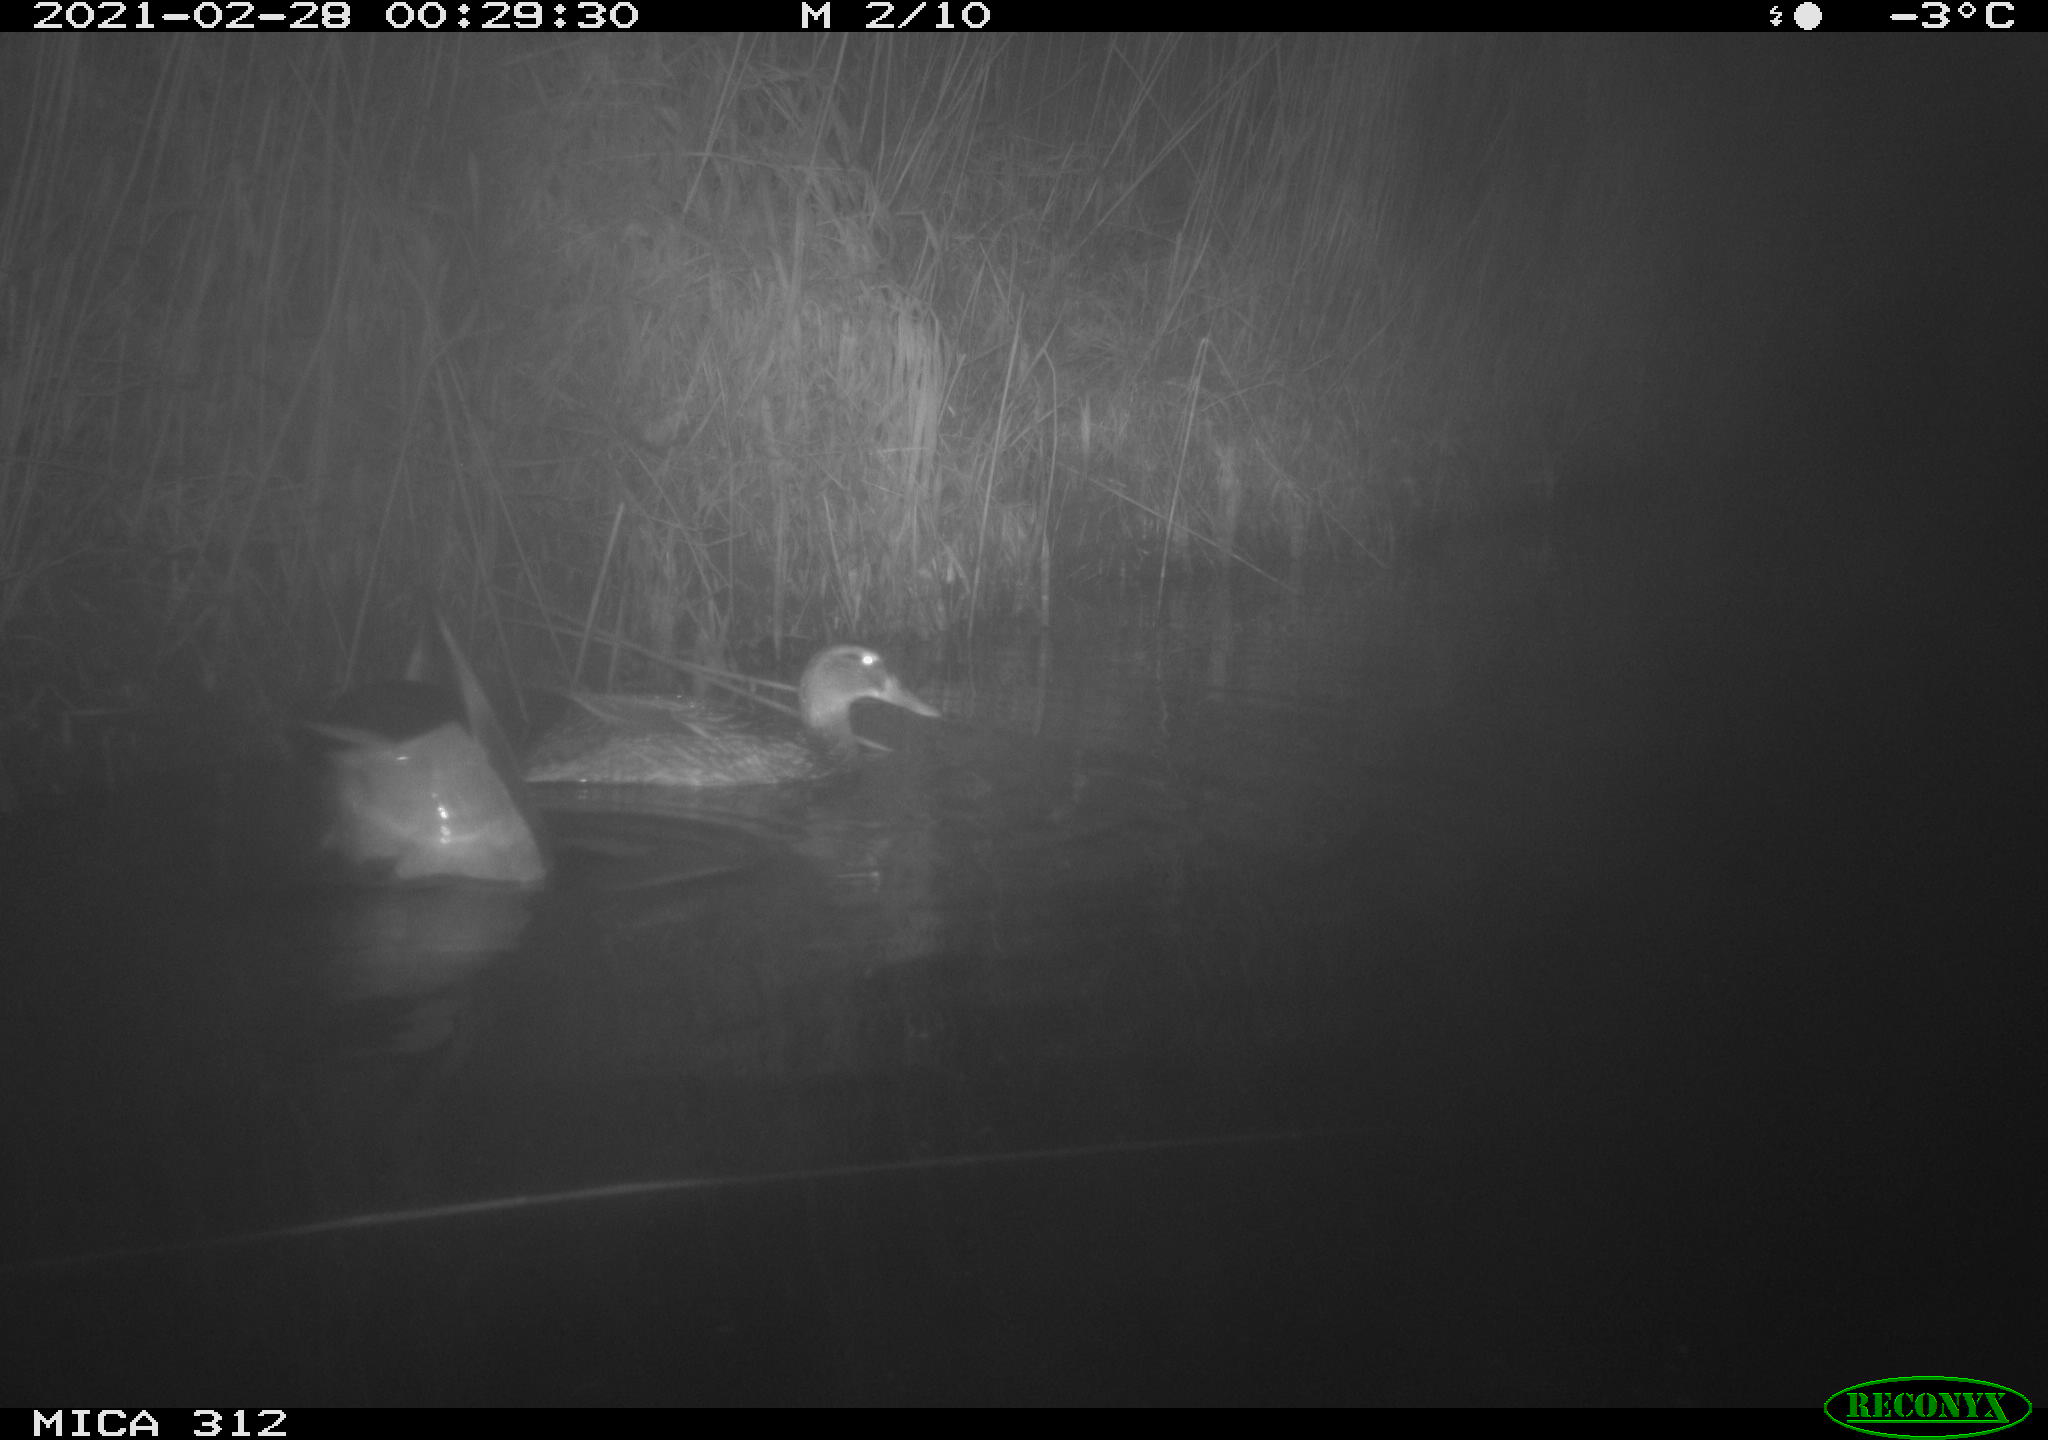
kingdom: Animalia
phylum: Chordata
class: Aves
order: Anseriformes
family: Anatidae
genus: Anas
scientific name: Anas platyrhynchos
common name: Mallard
